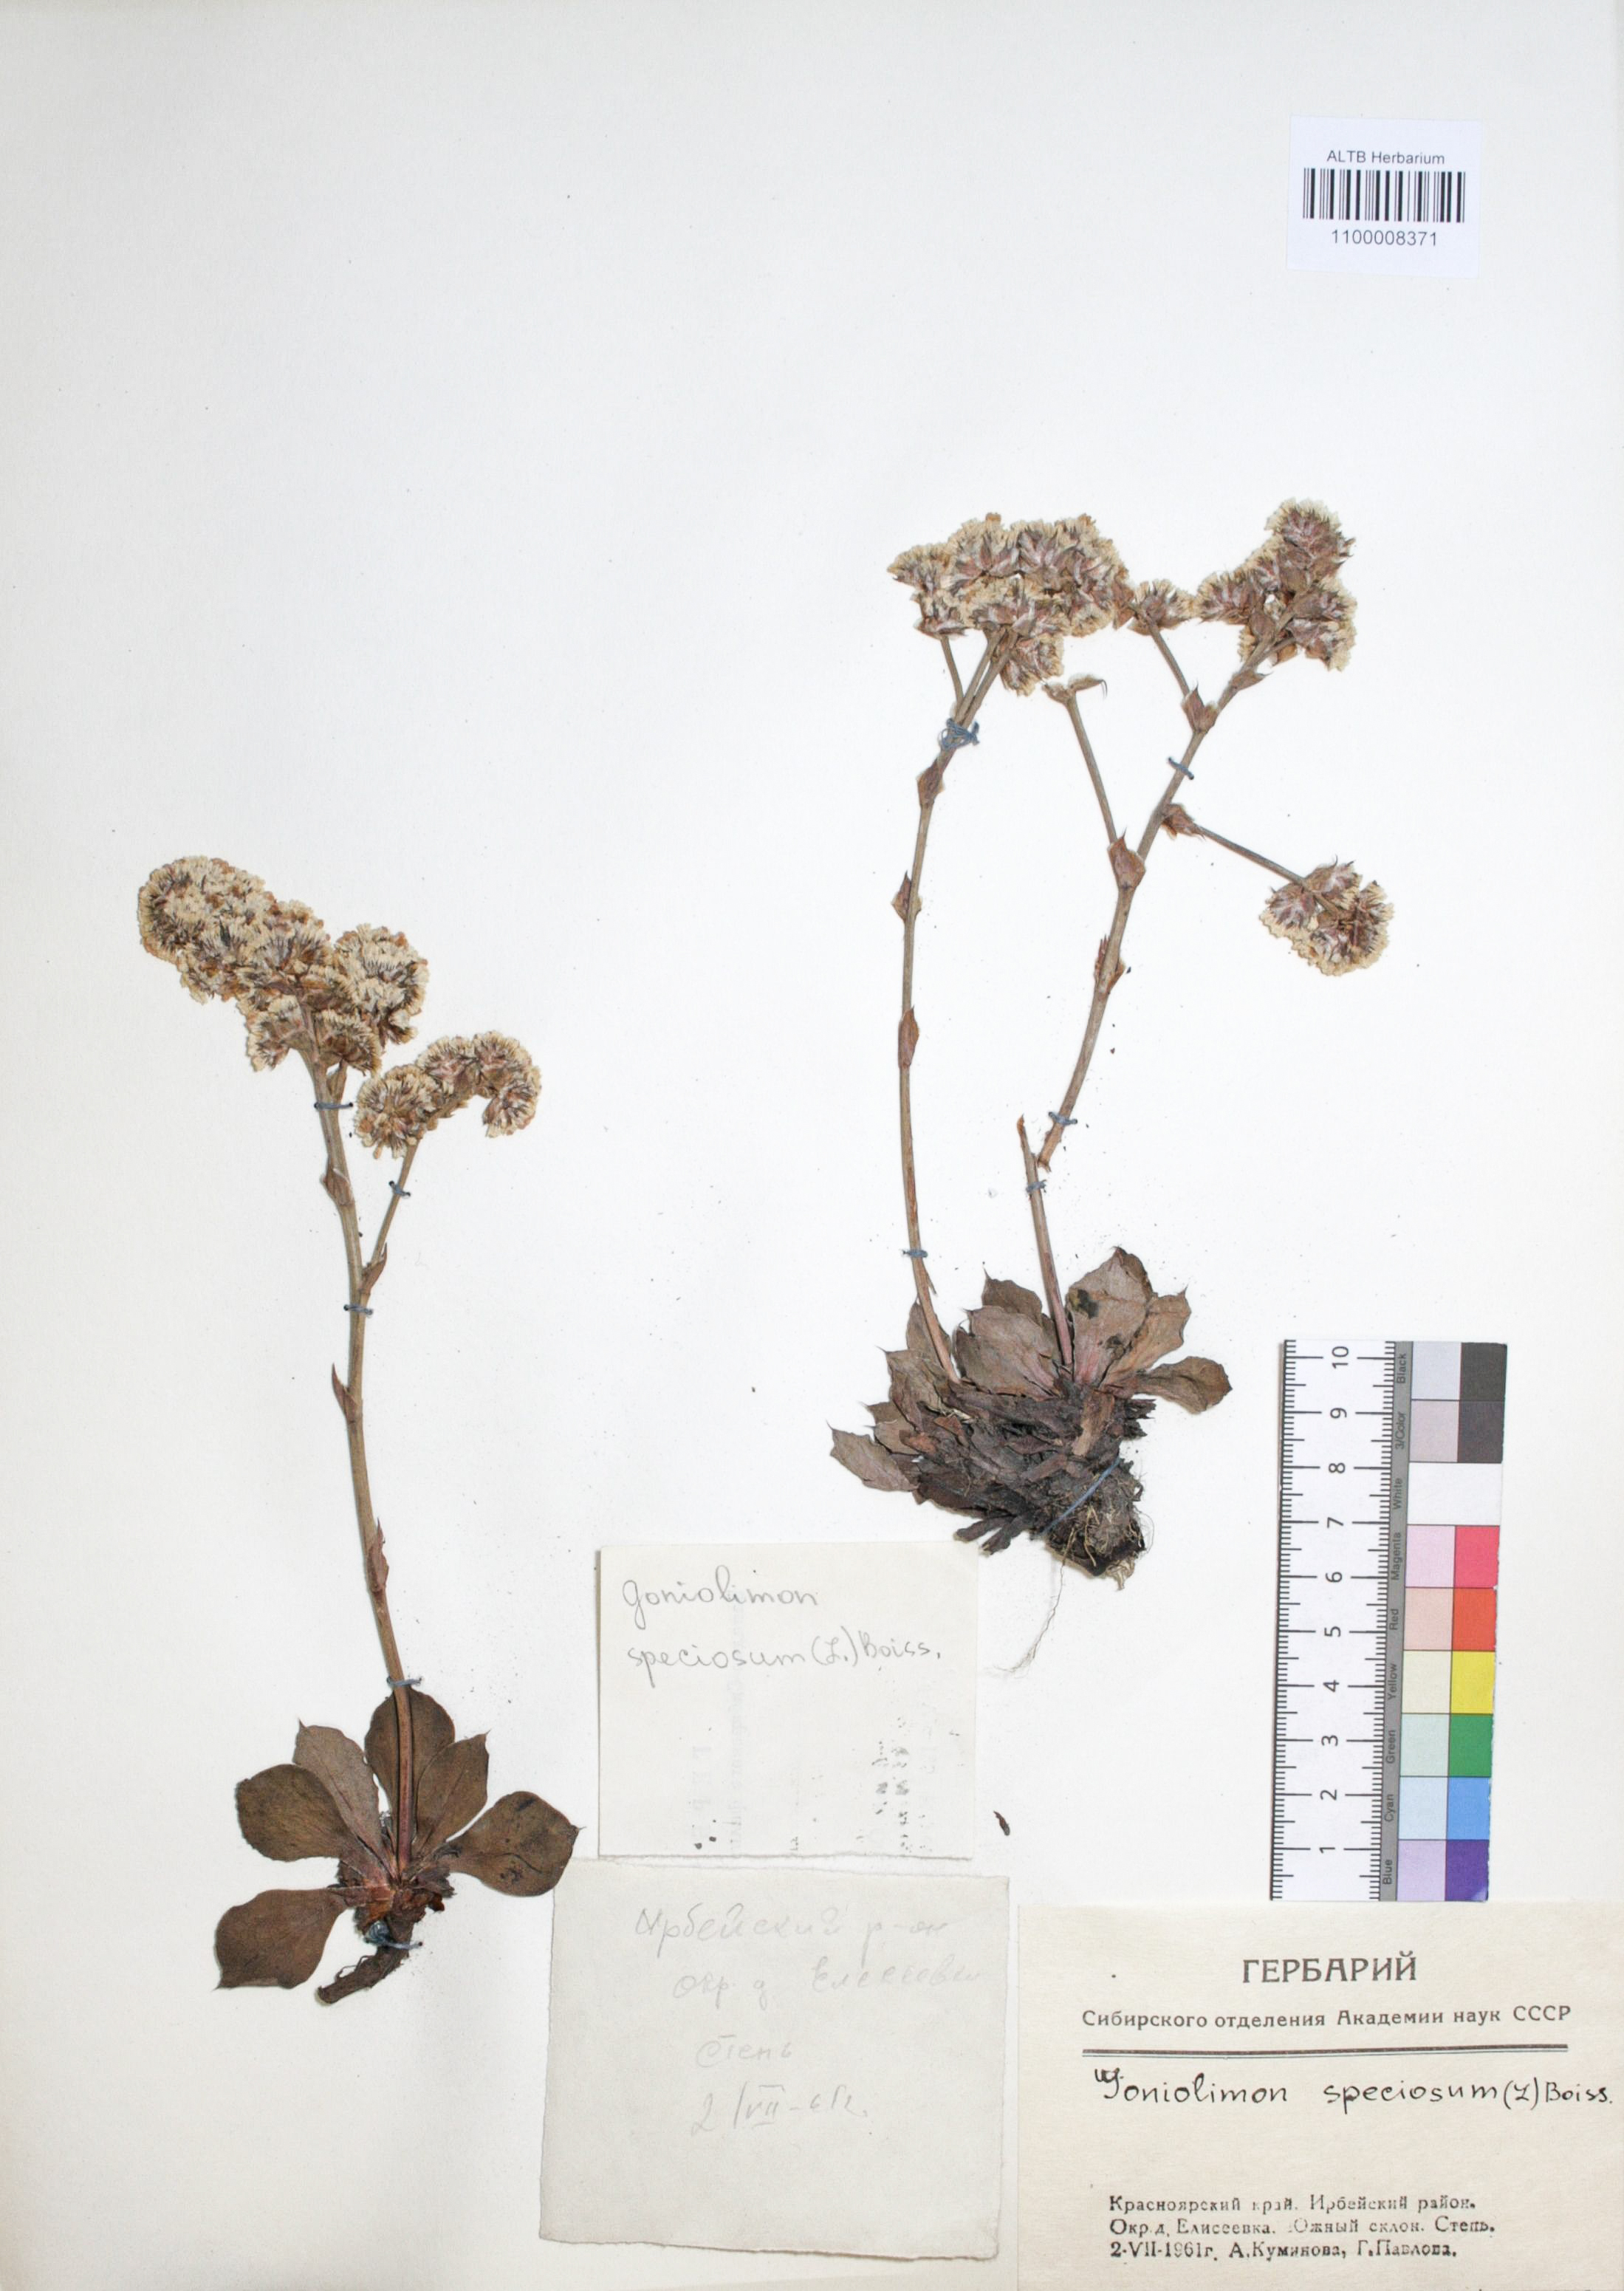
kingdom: Plantae
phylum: Tracheophyta
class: Magnoliopsida
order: Caryophyllales
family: Plumbaginaceae
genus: Goniolimon
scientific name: Goniolimon speciosum
